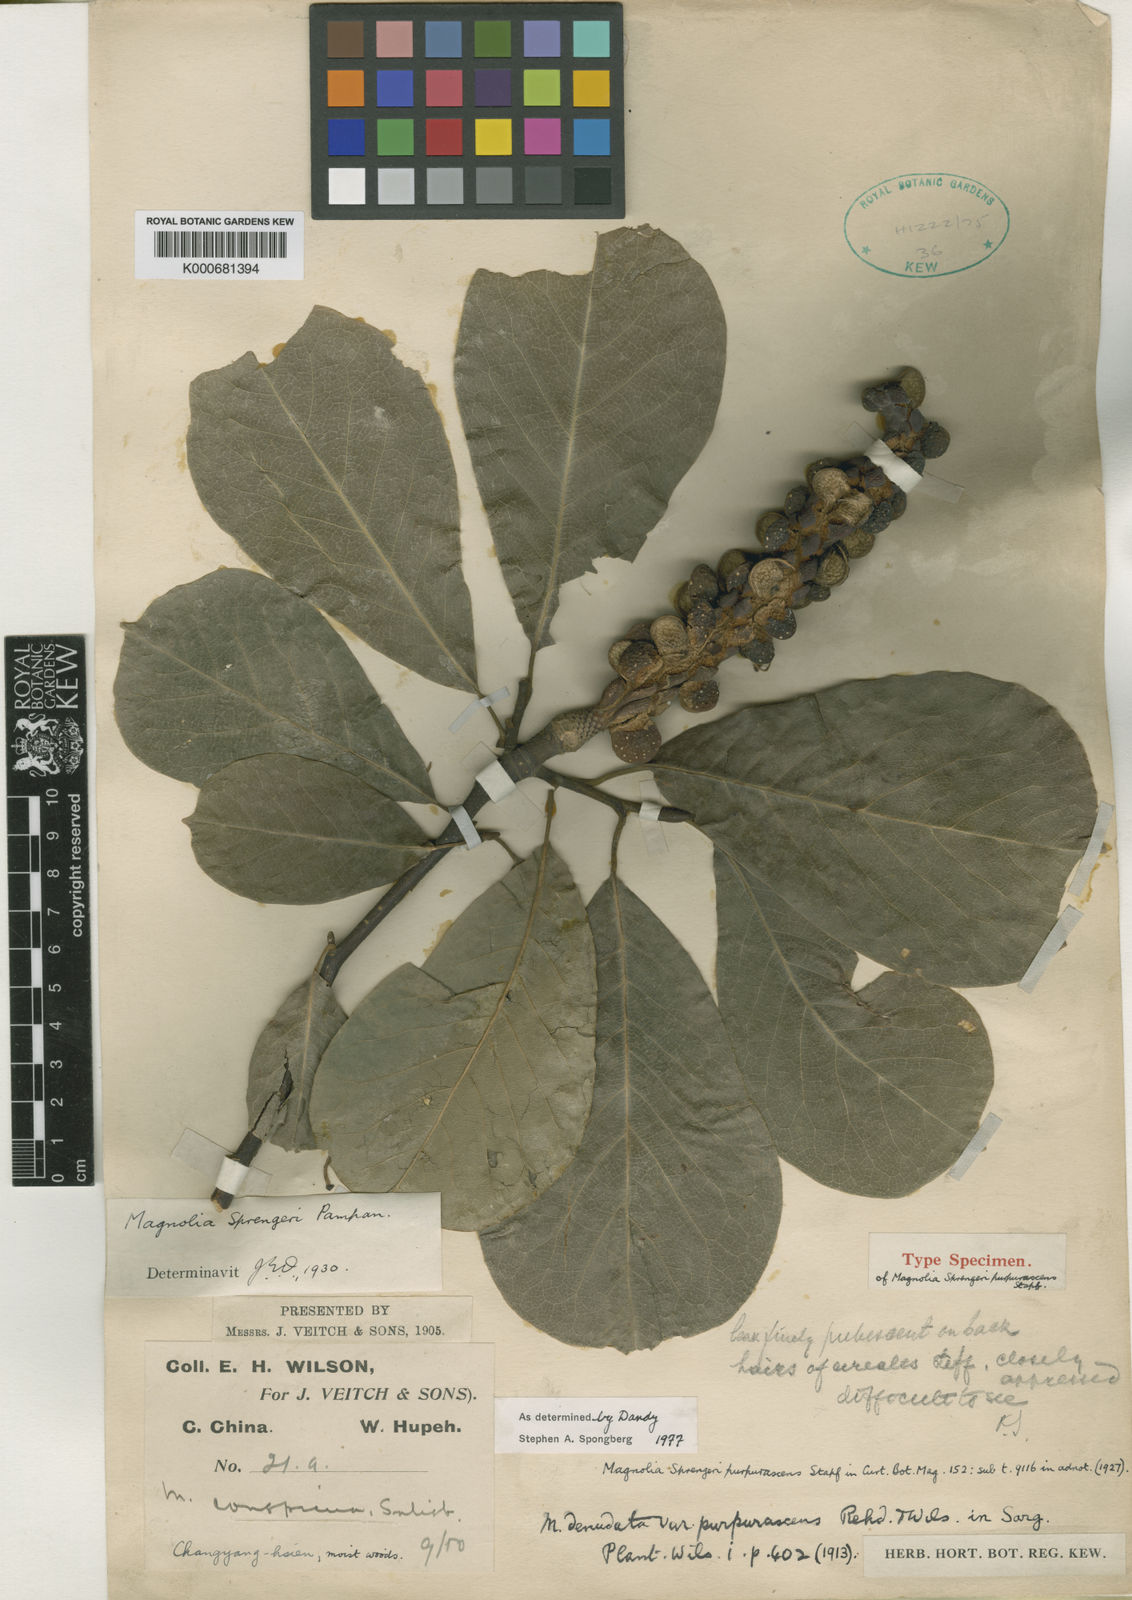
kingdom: Plantae
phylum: Tracheophyta
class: Magnoliopsida
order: Magnoliales
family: Magnoliaceae
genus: Magnolia
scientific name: Magnolia sprengeri
